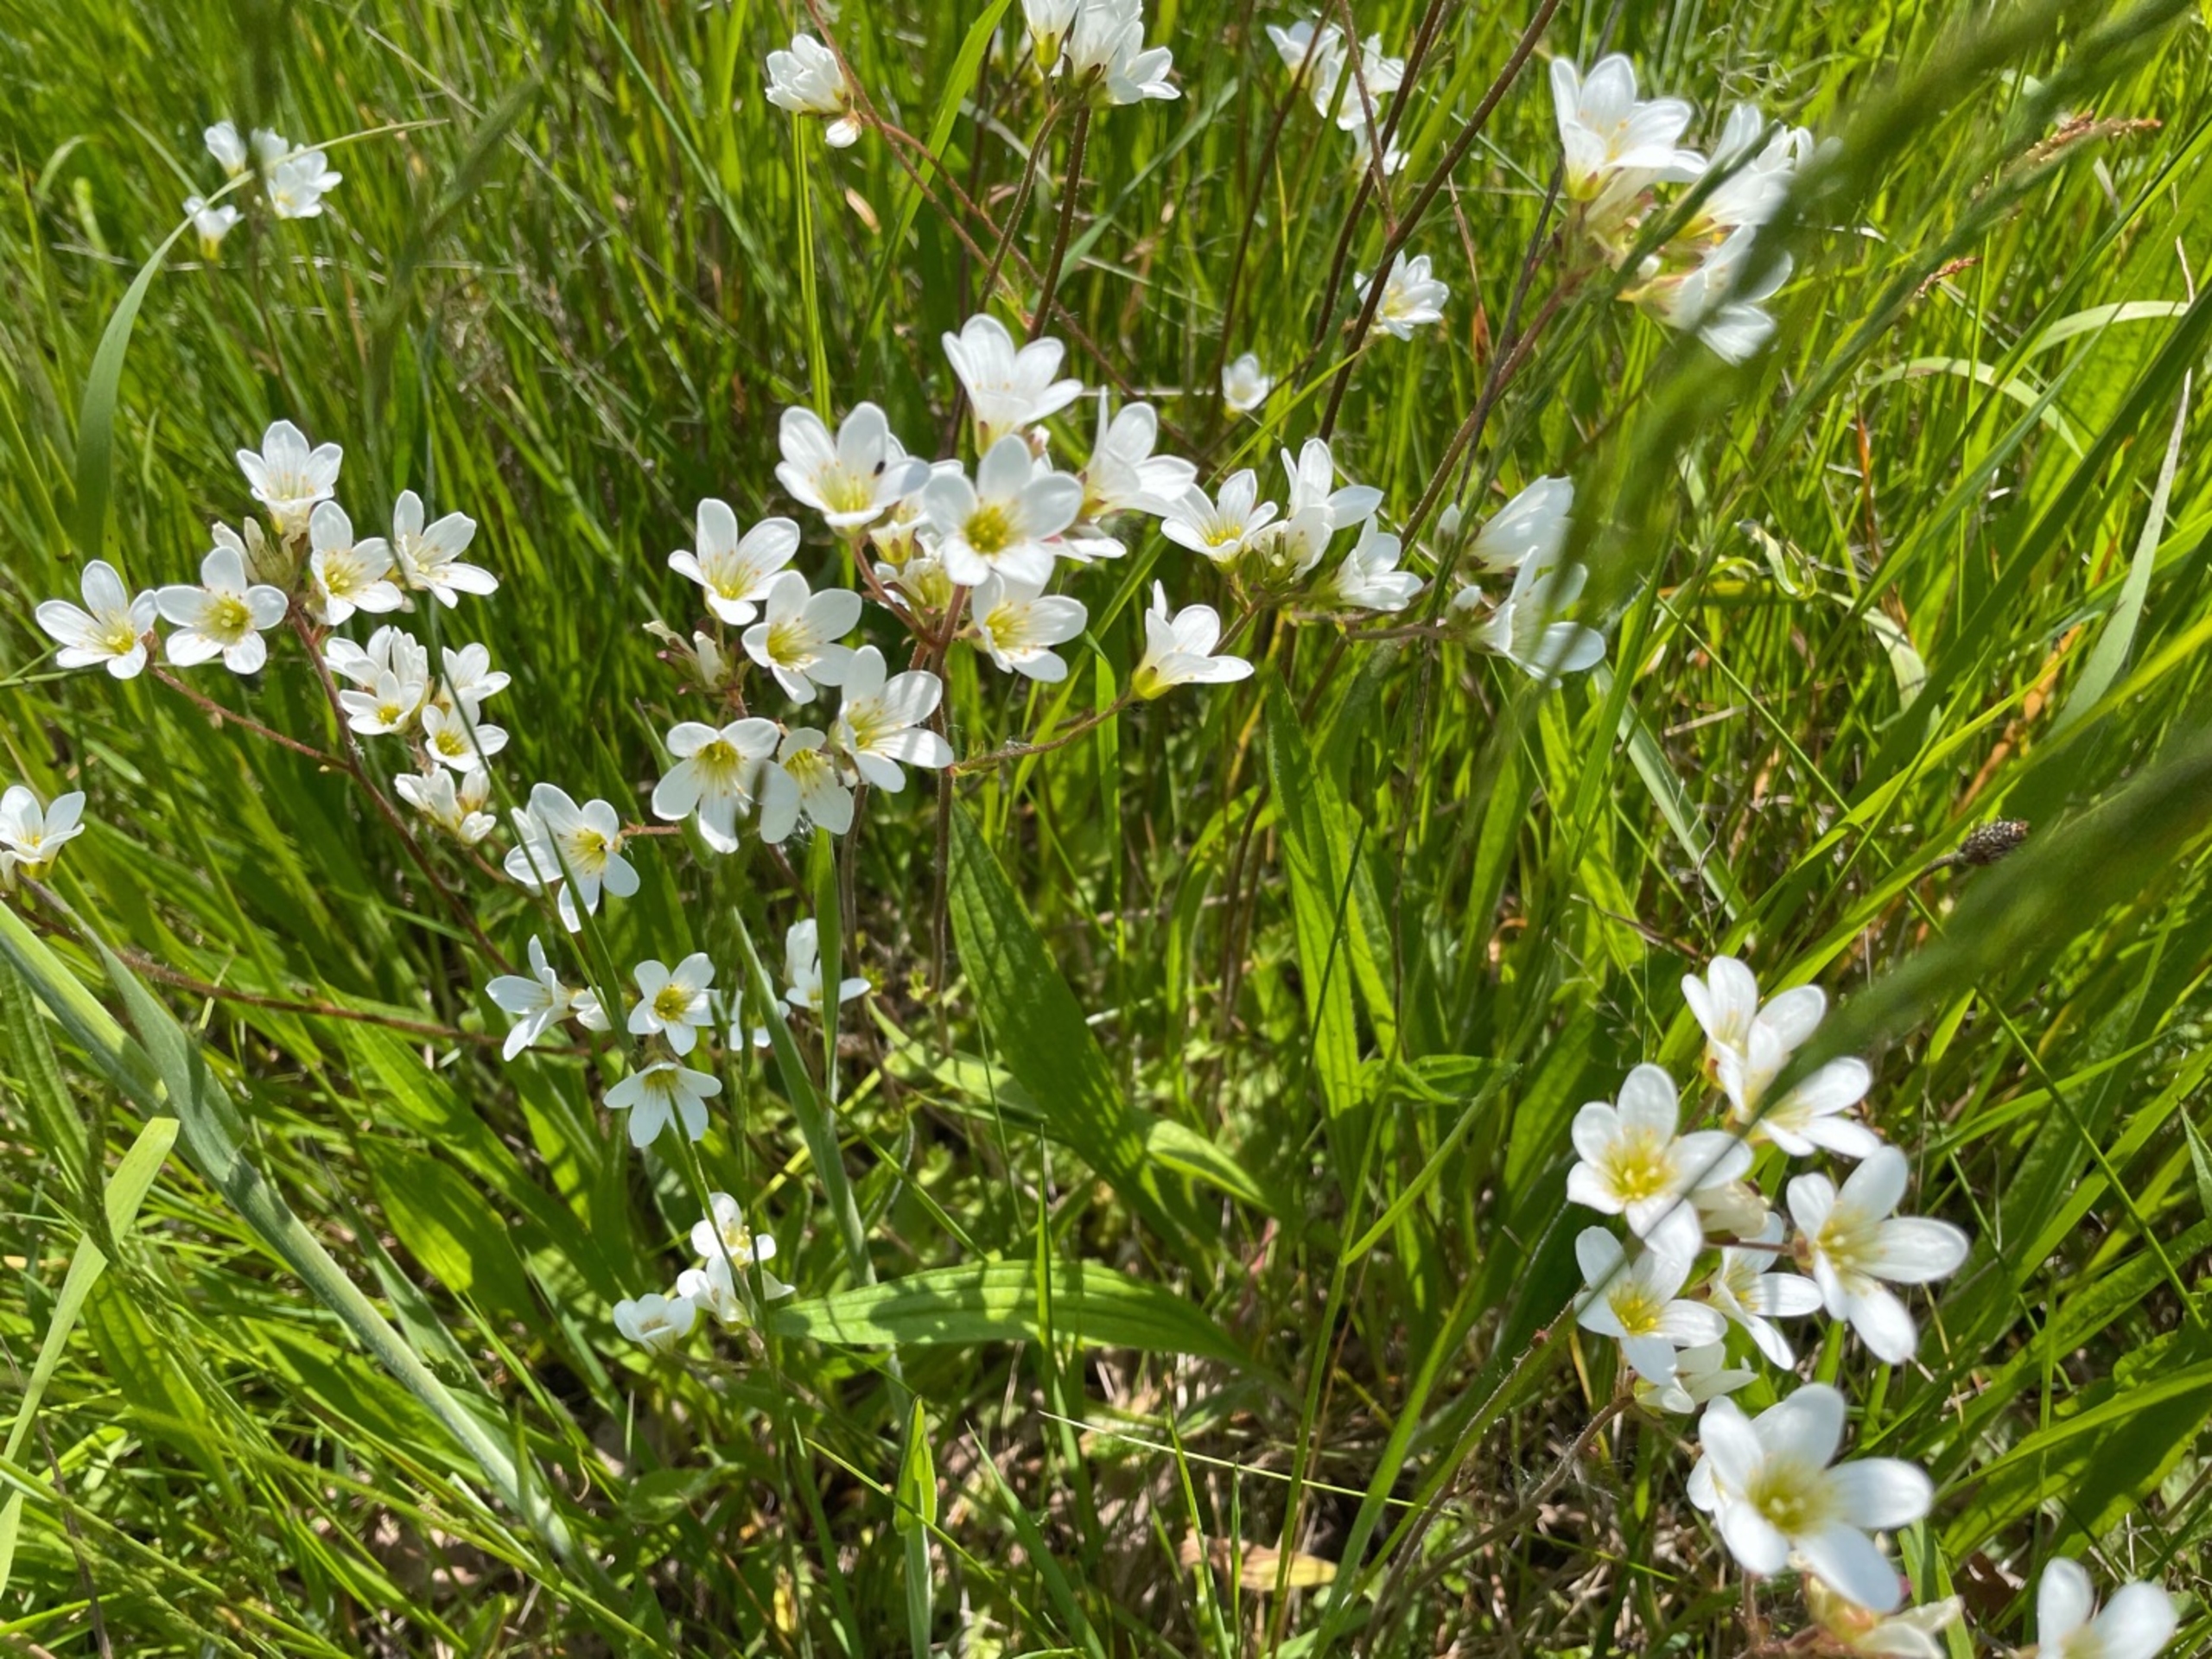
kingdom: Plantae
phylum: Tracheophyta
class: Magnoliopsida
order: Saxifragales
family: Saxifragaceae
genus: Saxifraga
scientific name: Saxifraga granulata
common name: Kornet stenbræk
